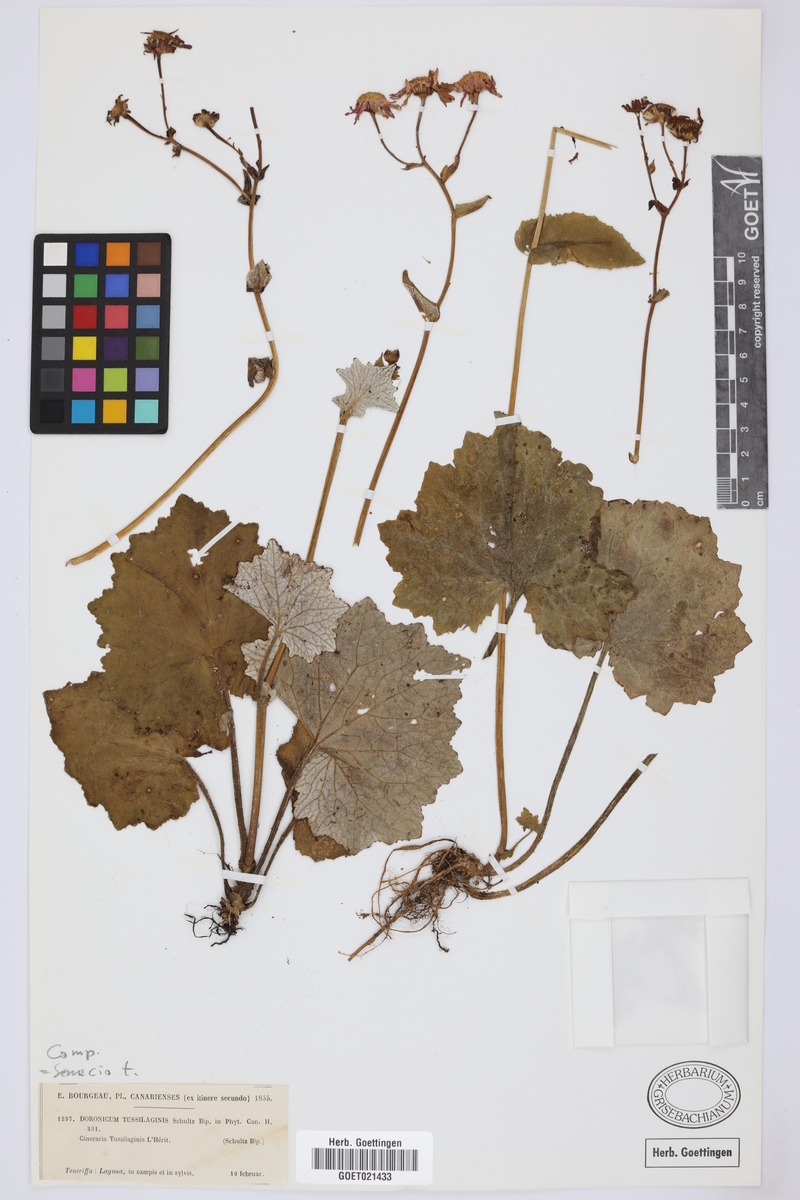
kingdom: Plantae
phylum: Tracheophyta
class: Magnoliopsida
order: Asterales
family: Asteraceae
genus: Pericallis
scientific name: Pericallis tussilaginis
